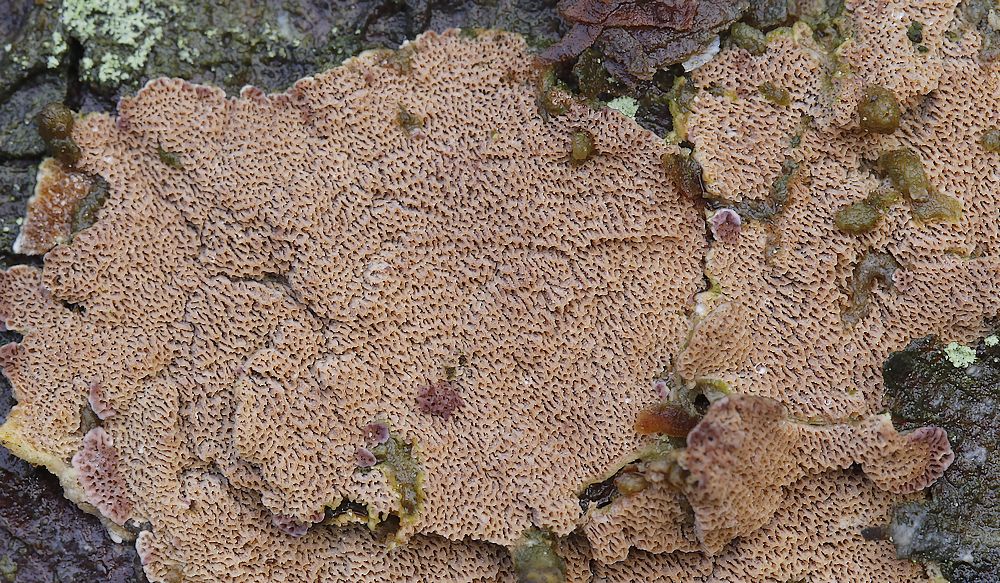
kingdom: Fungi
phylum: Basidiomycota
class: Agaricomycetes
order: Polyporales
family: Polyporaceae
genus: Trichaptum
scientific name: Trichaptum
